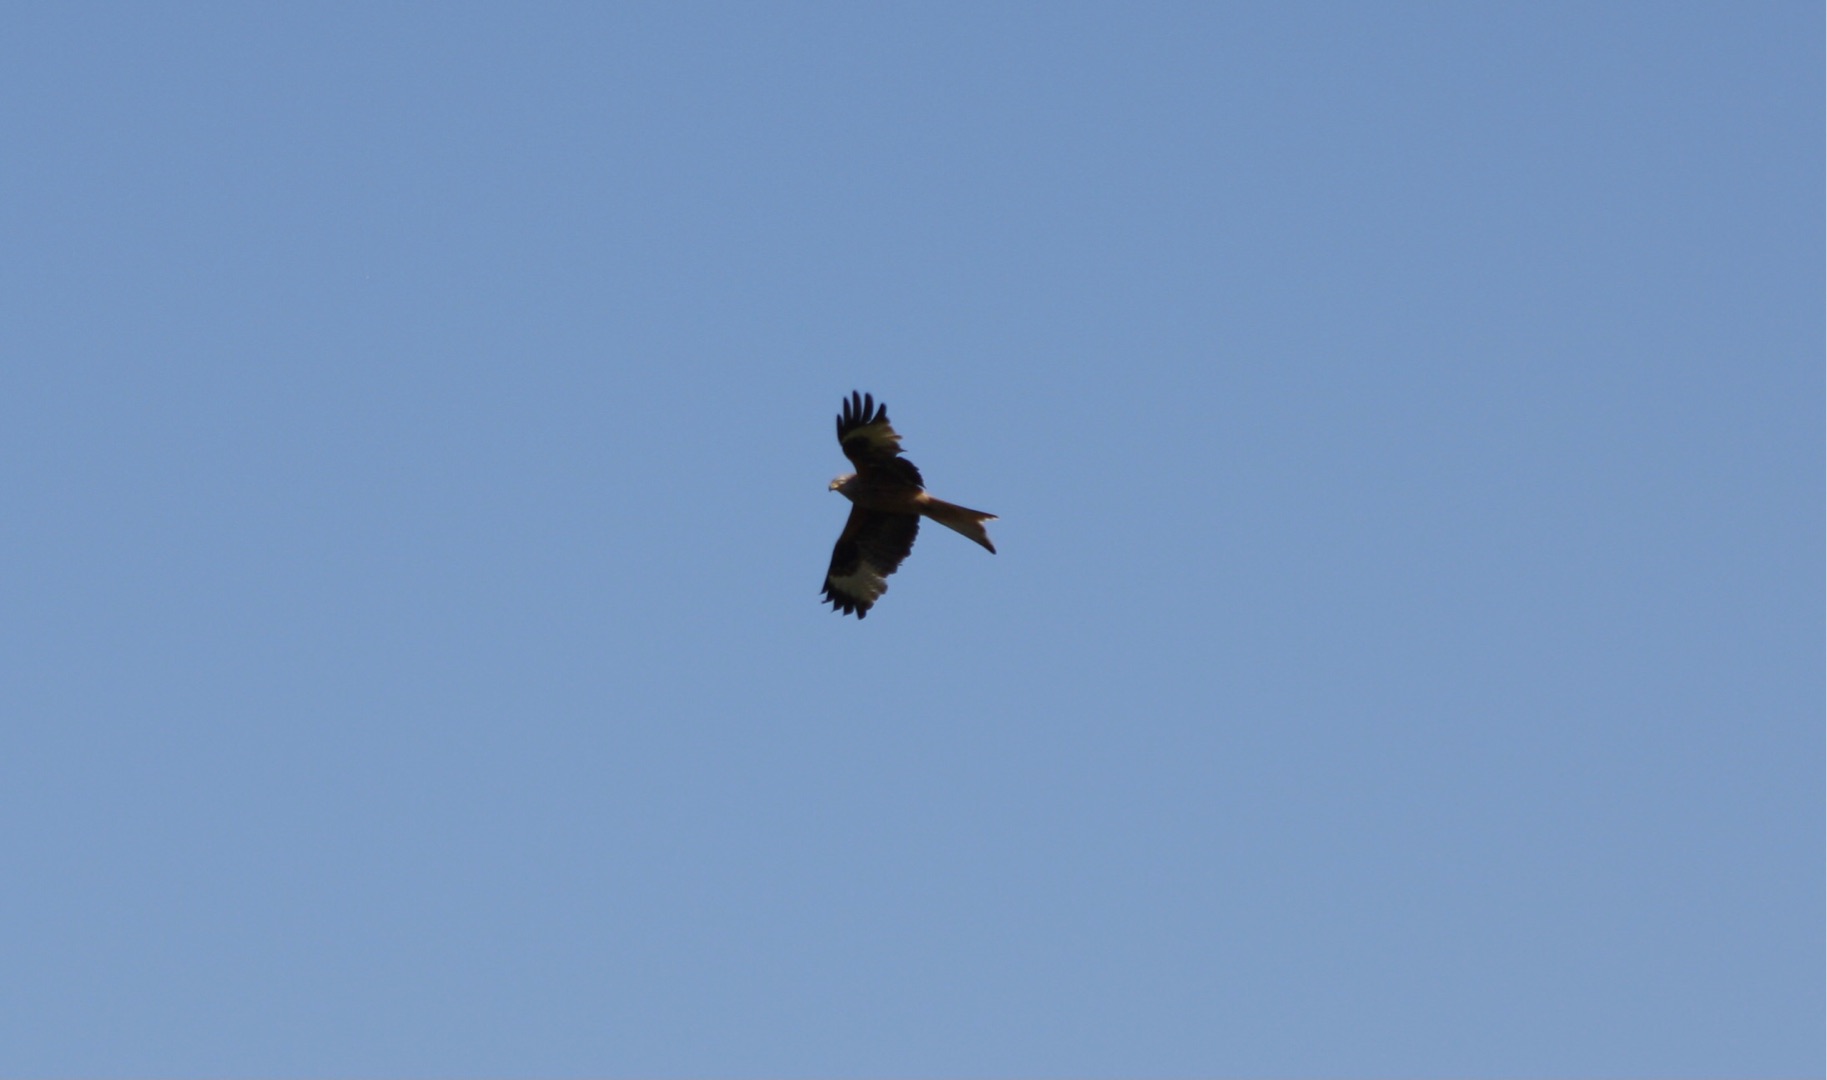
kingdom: Animalia
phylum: Chordata
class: Aves
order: Accipitriformes
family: Accipitridae
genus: Milvus
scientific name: Milvus milvus
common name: Rød glente
